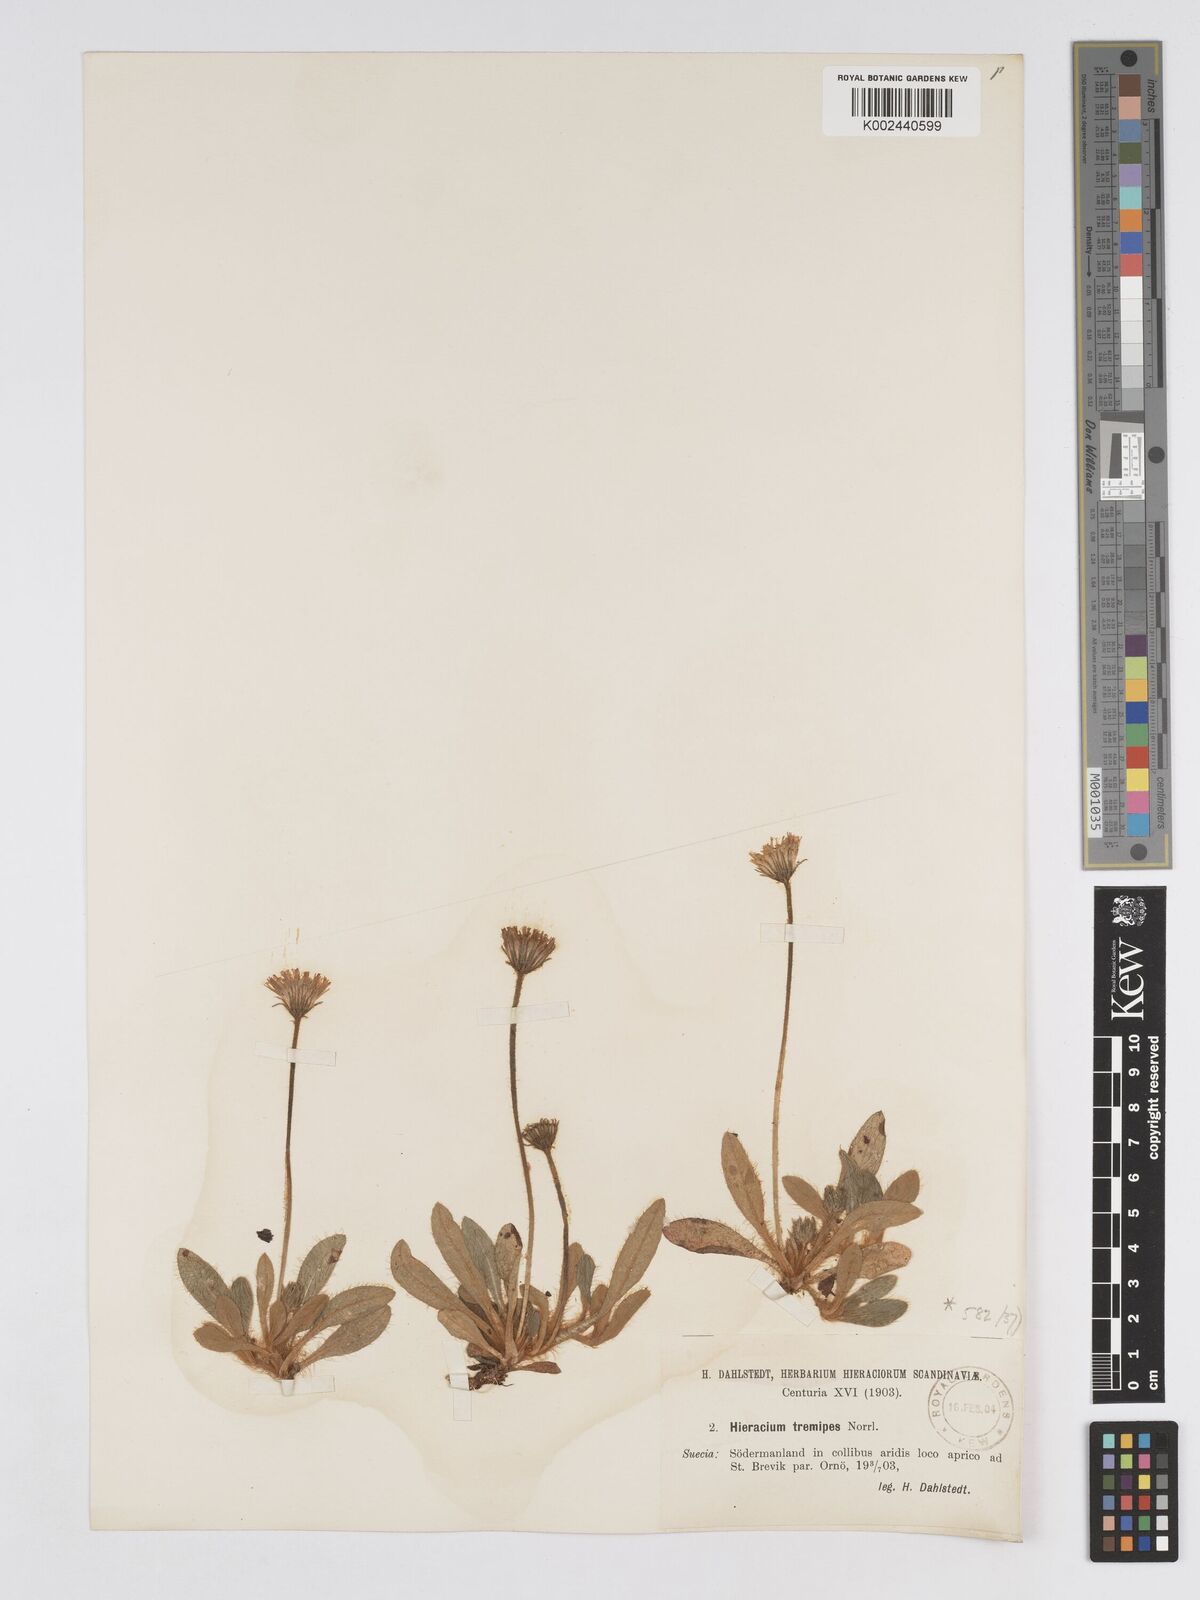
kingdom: Plantae
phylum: Tracheophyta
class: Magnoliopsida
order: Asterales
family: Asteraceae
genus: Pilosella
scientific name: Pilosella longisquama
